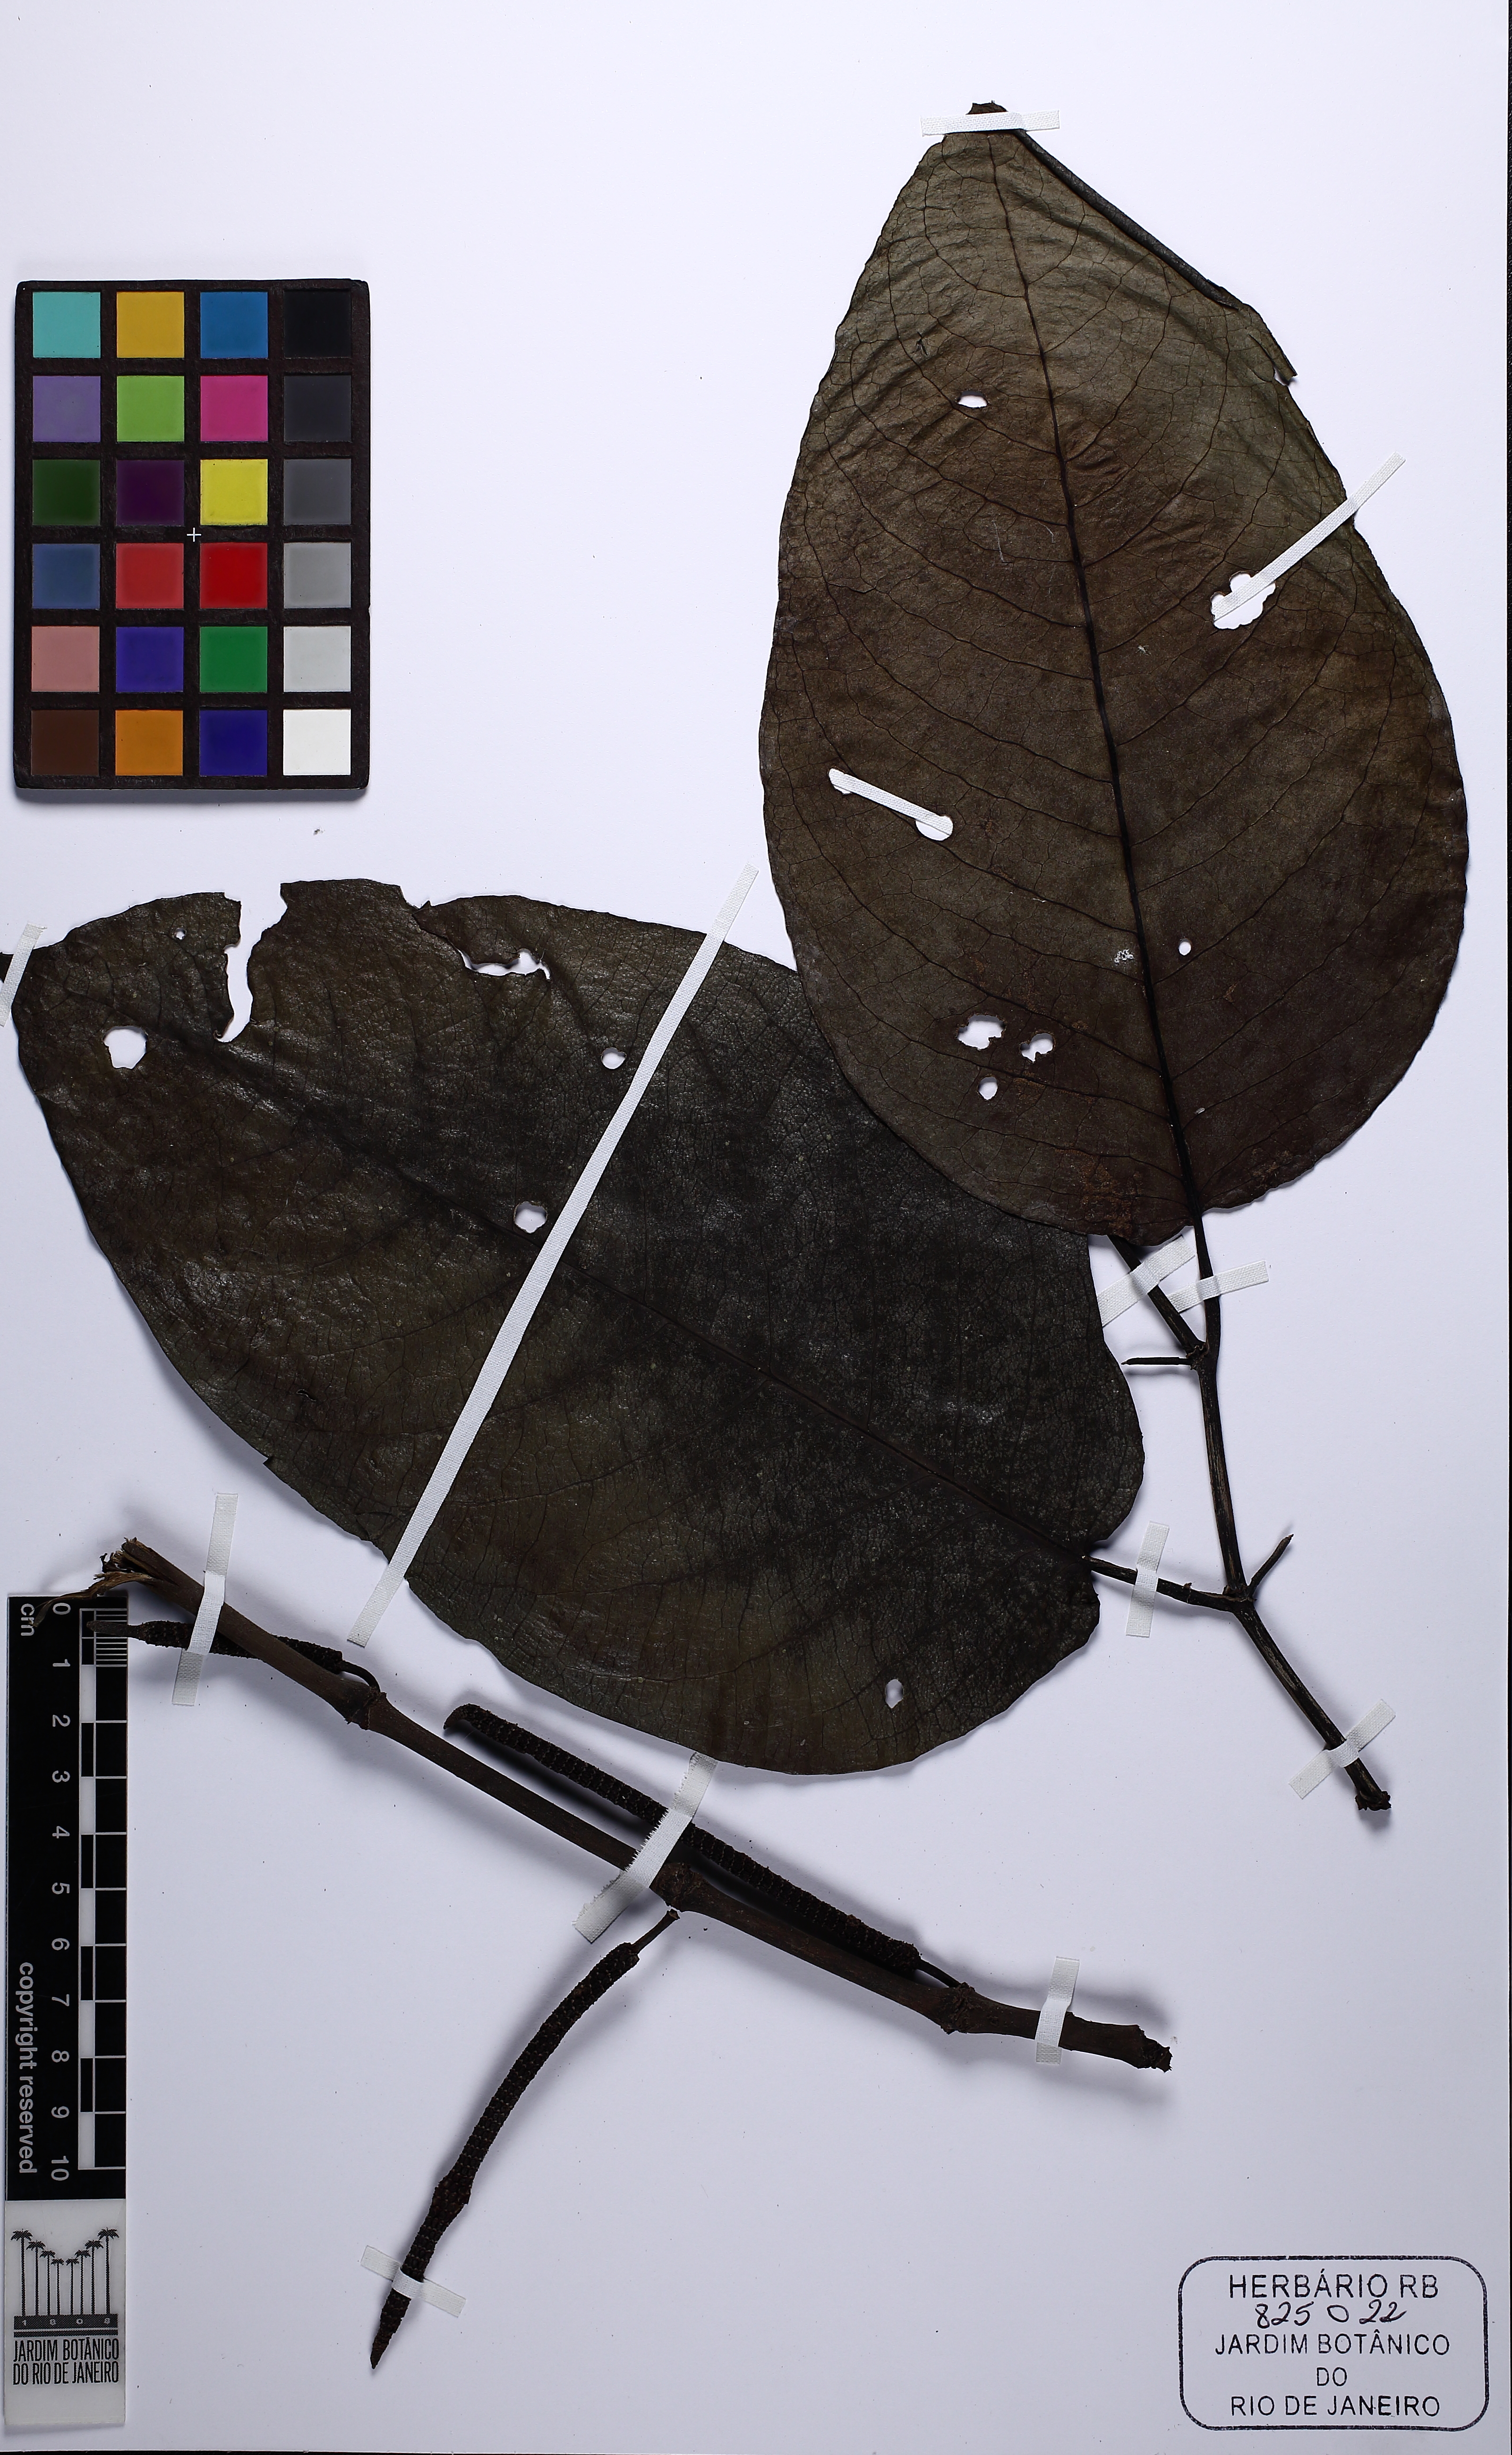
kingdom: Plantae
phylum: Tracheophyta
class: Magnoliopsida
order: Piperales
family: Piperaceae
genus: Piper
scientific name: Piper fluminense
